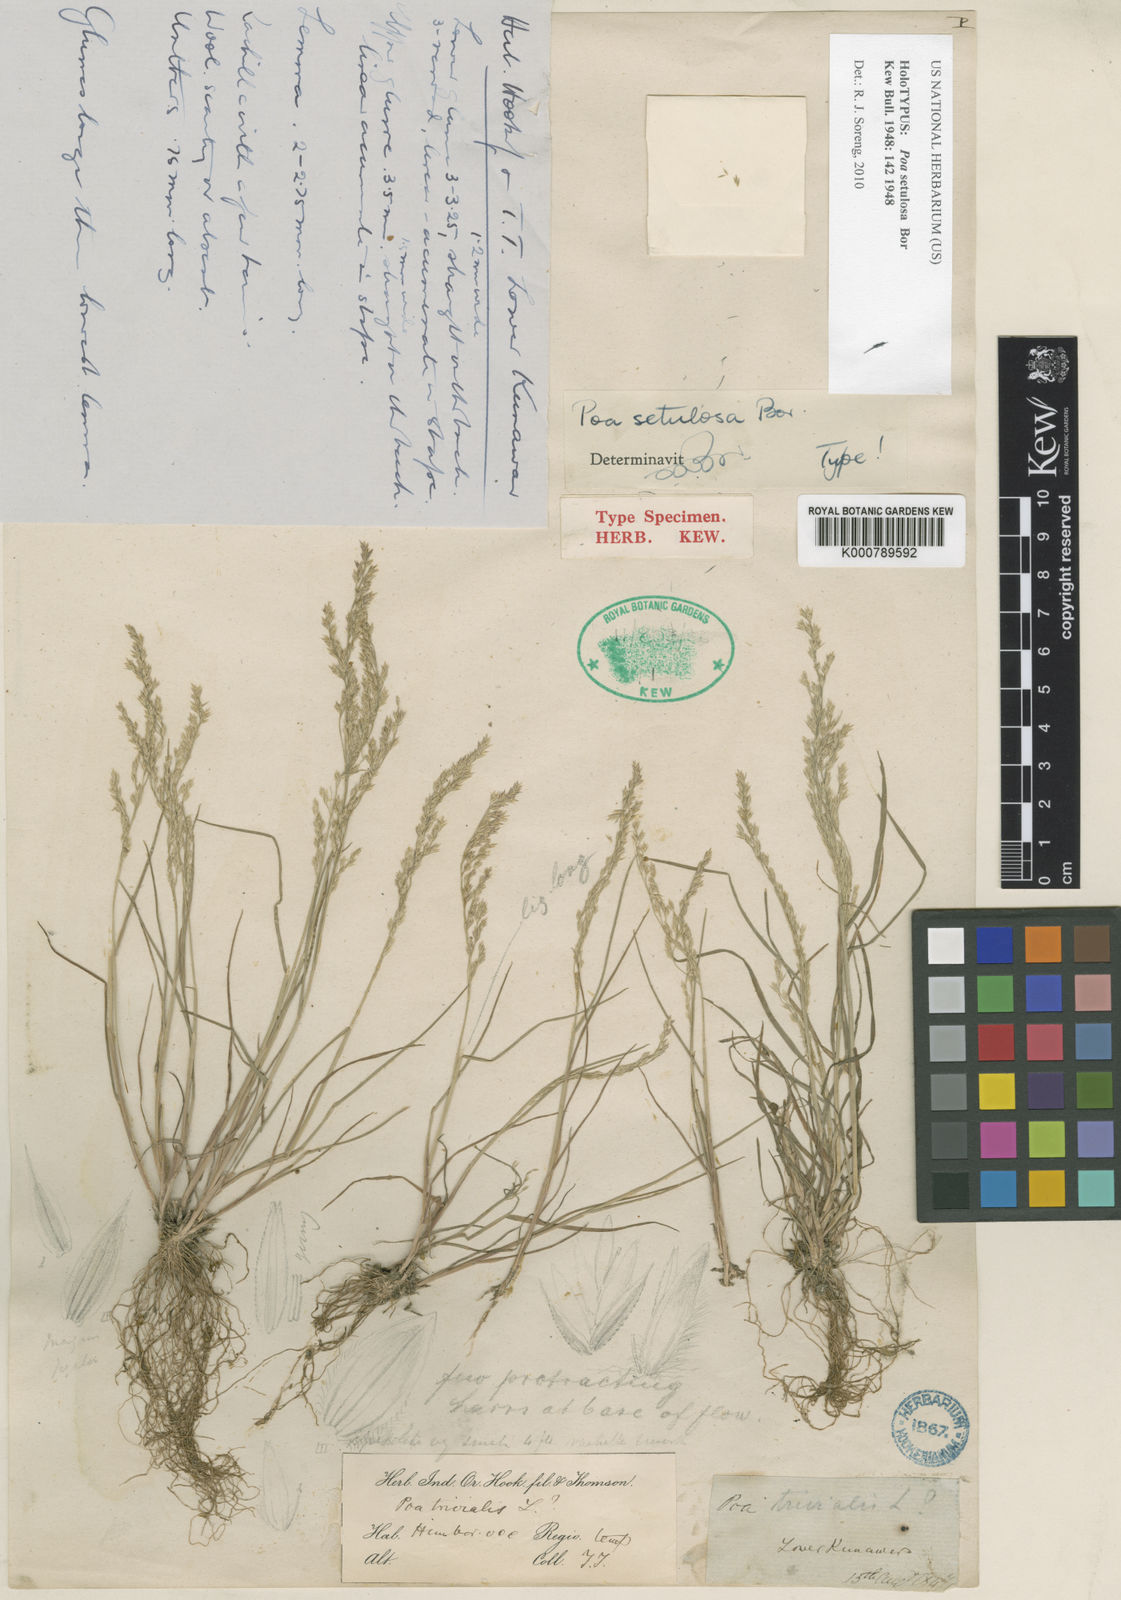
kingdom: Plantae
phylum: Tracheophyta
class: Liliopsida
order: Poales
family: Poaceae
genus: Poa
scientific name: Poa setulosa
